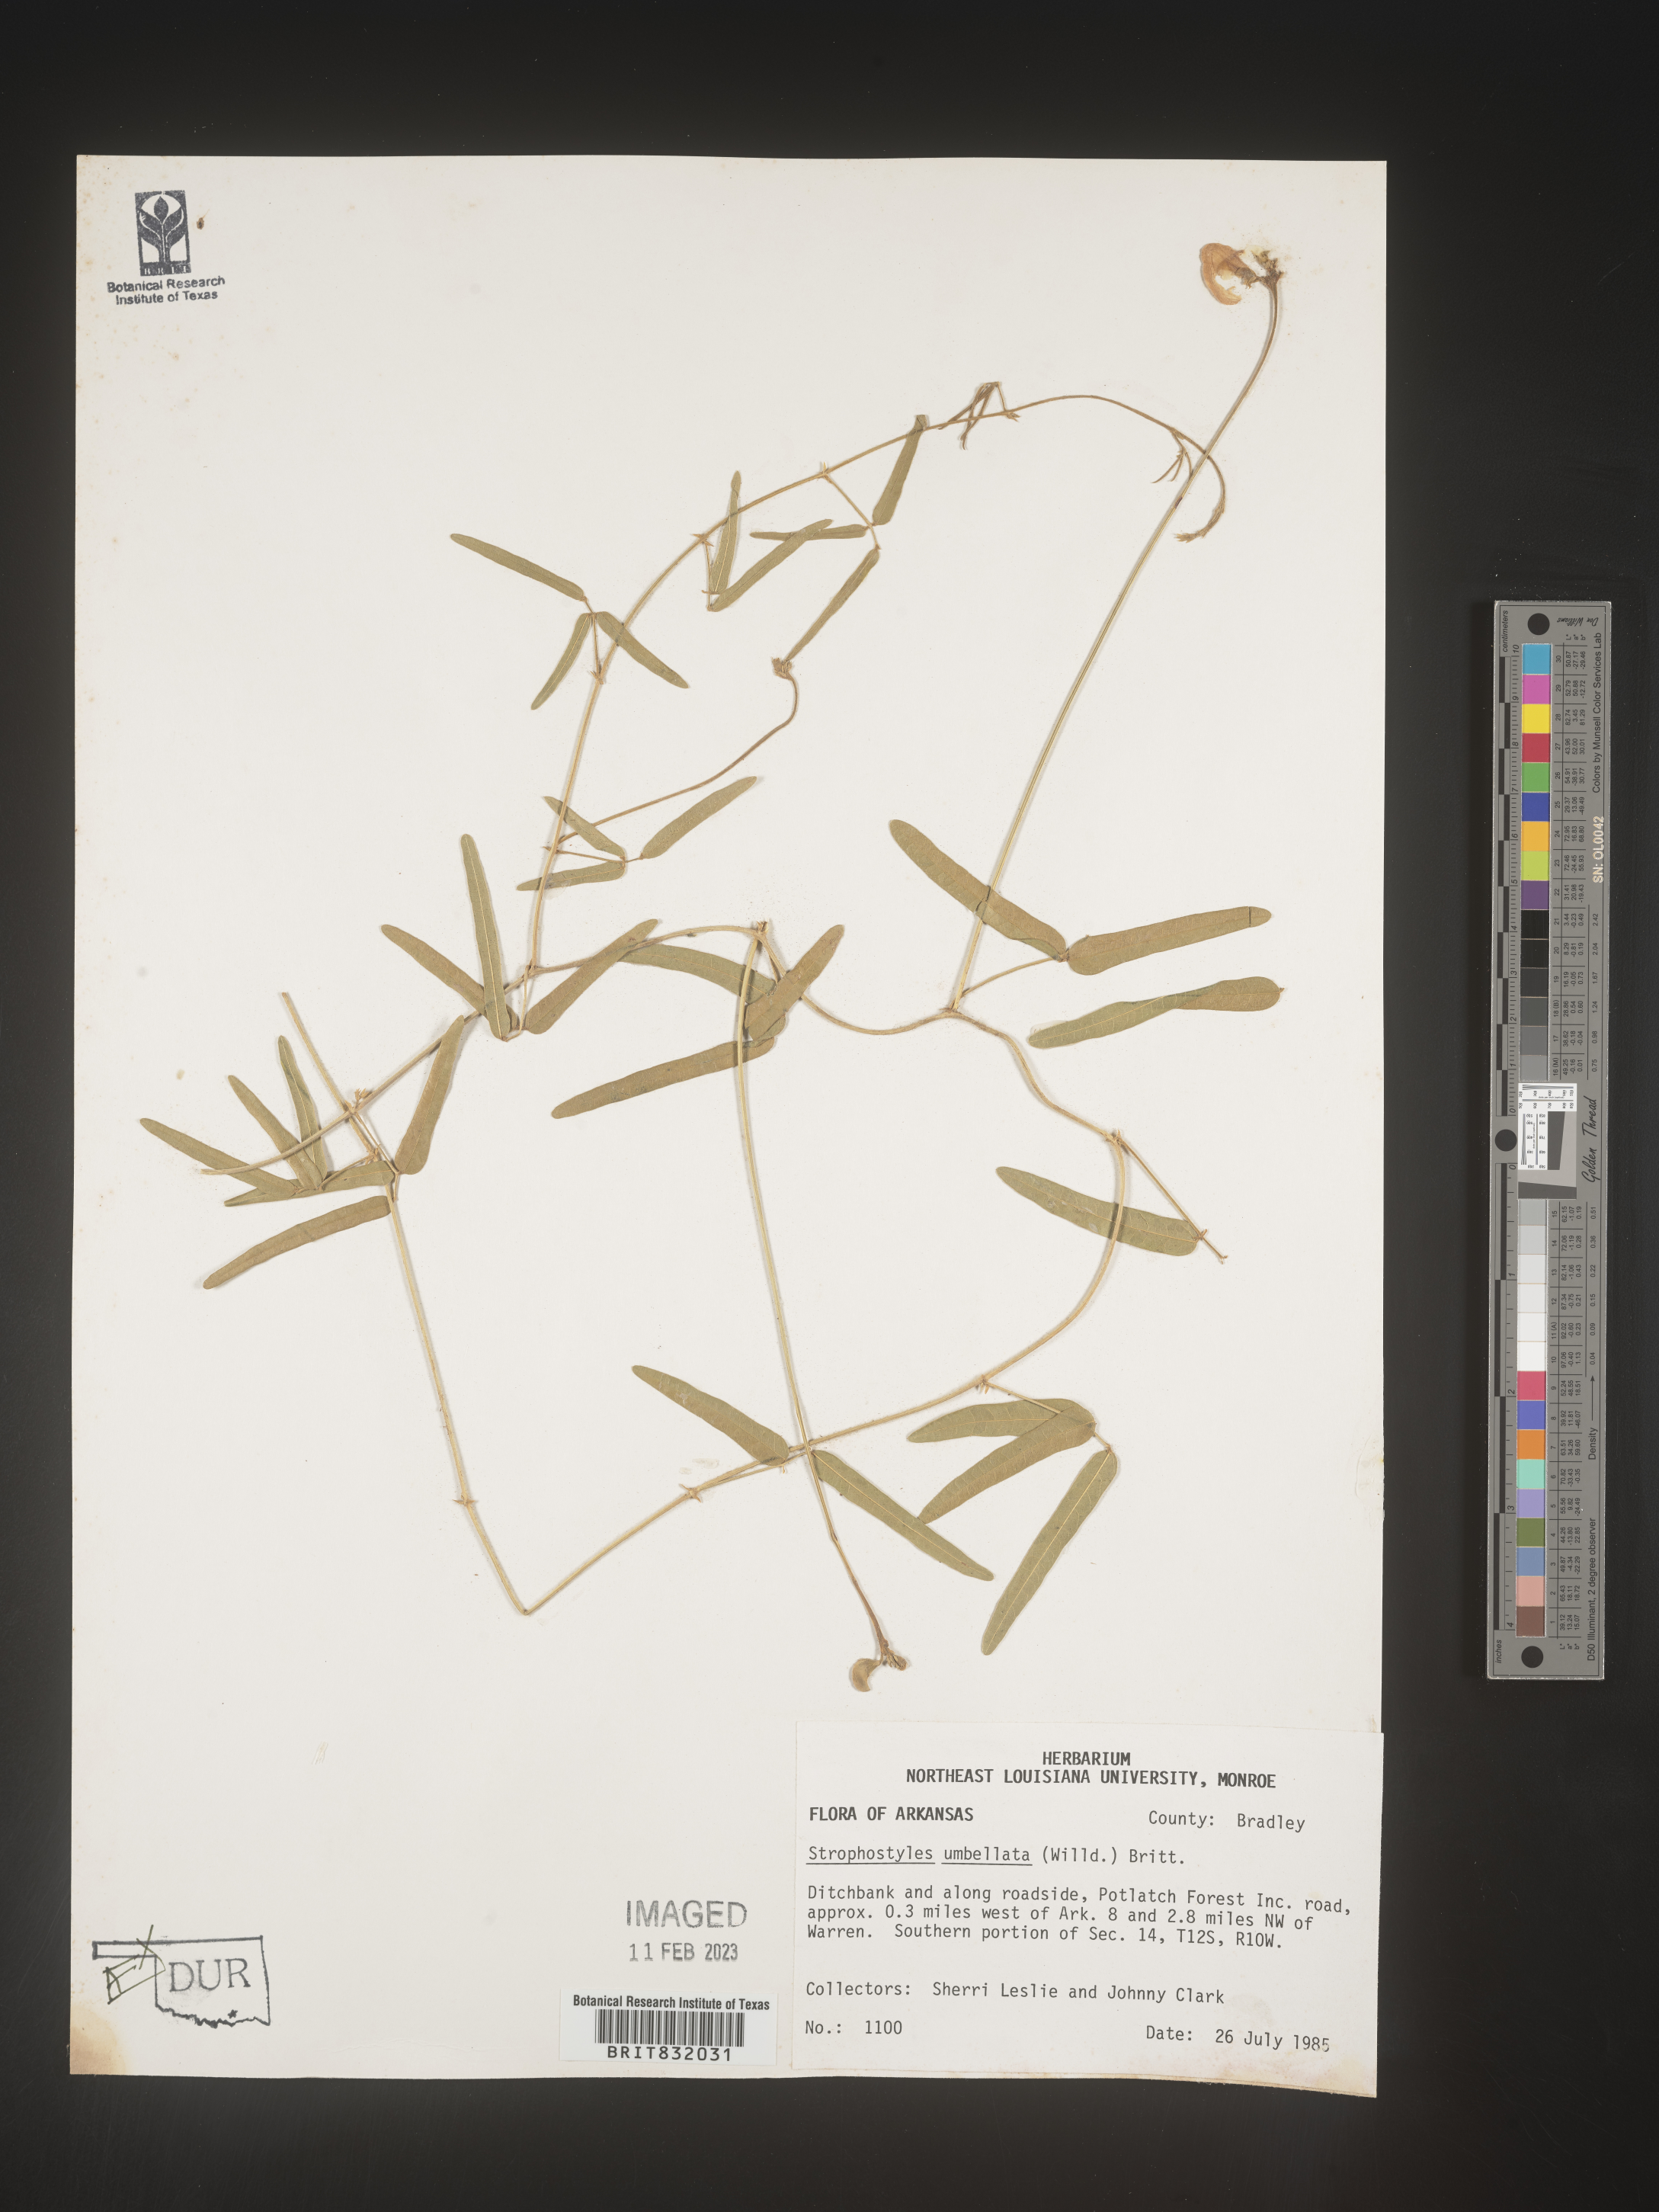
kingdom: Plantae
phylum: Tracheophyta
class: Magnoliopsida
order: Fabales
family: Fabaceae
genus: Strophostyles
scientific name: Strophostyles umbellata
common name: Perennial wild bean
